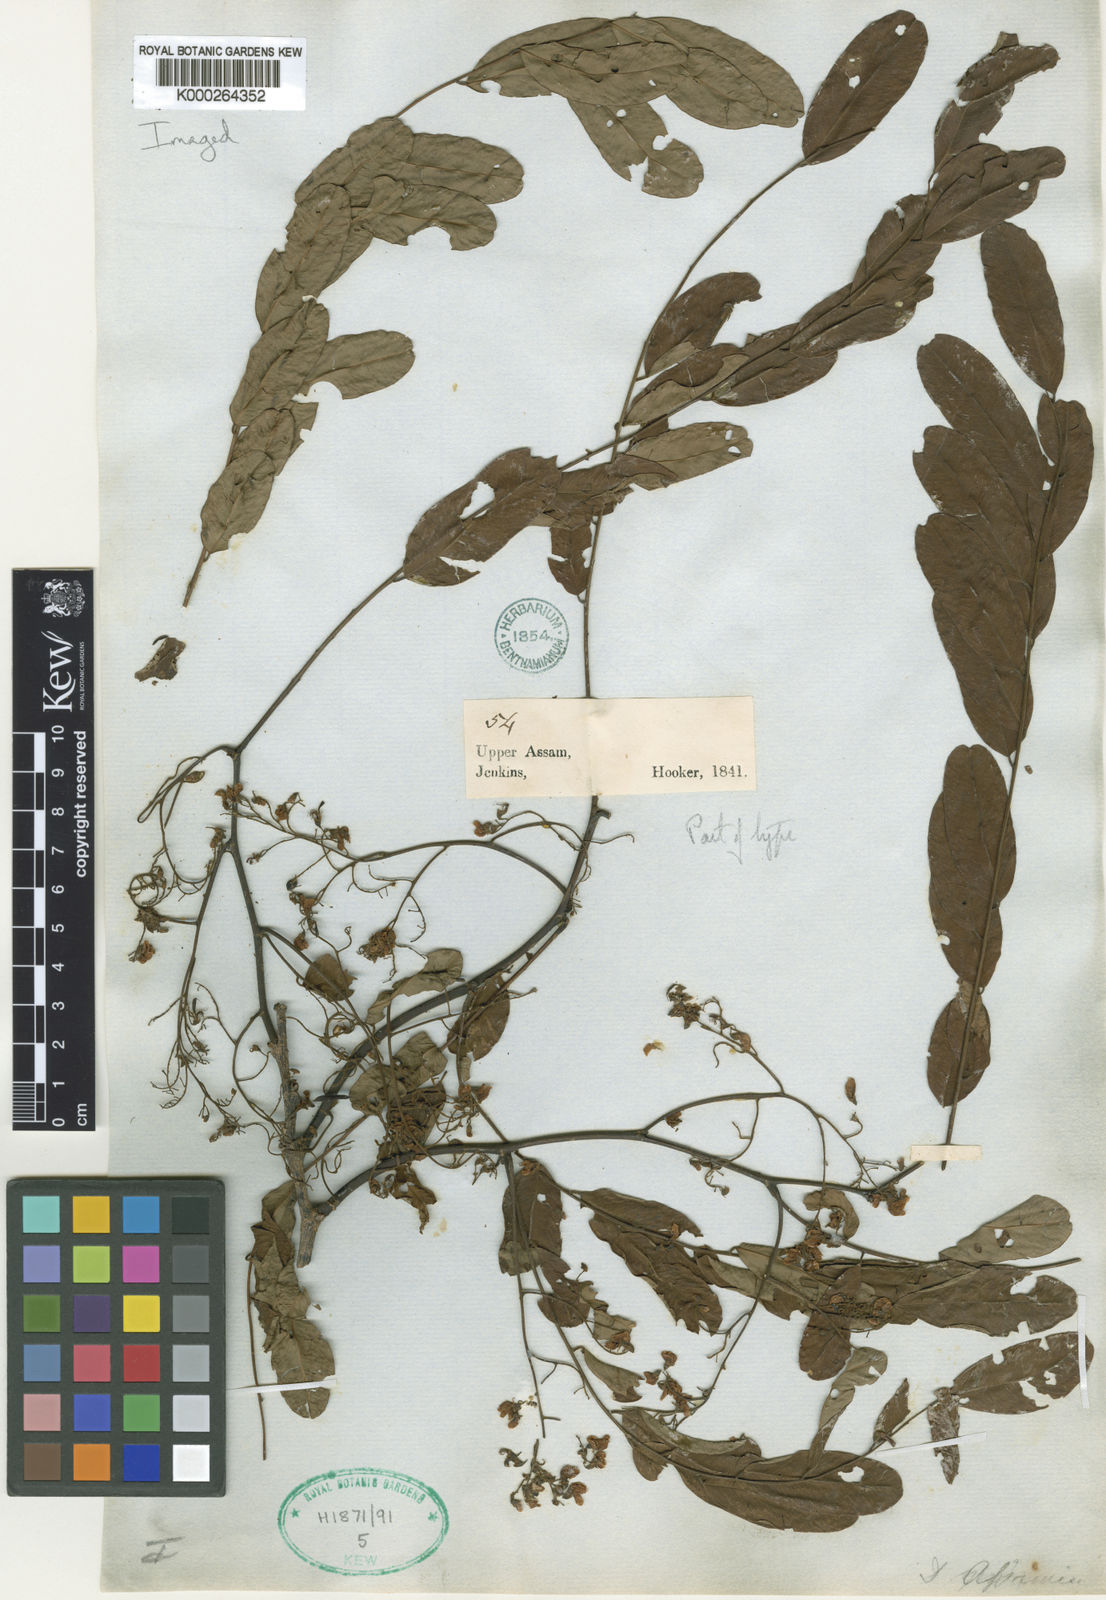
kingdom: Plantae
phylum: Tracheophyta
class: Magnoliopsida
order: Fabales
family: Fabaceae
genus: Dalbergia
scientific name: Dalbergia assamica
